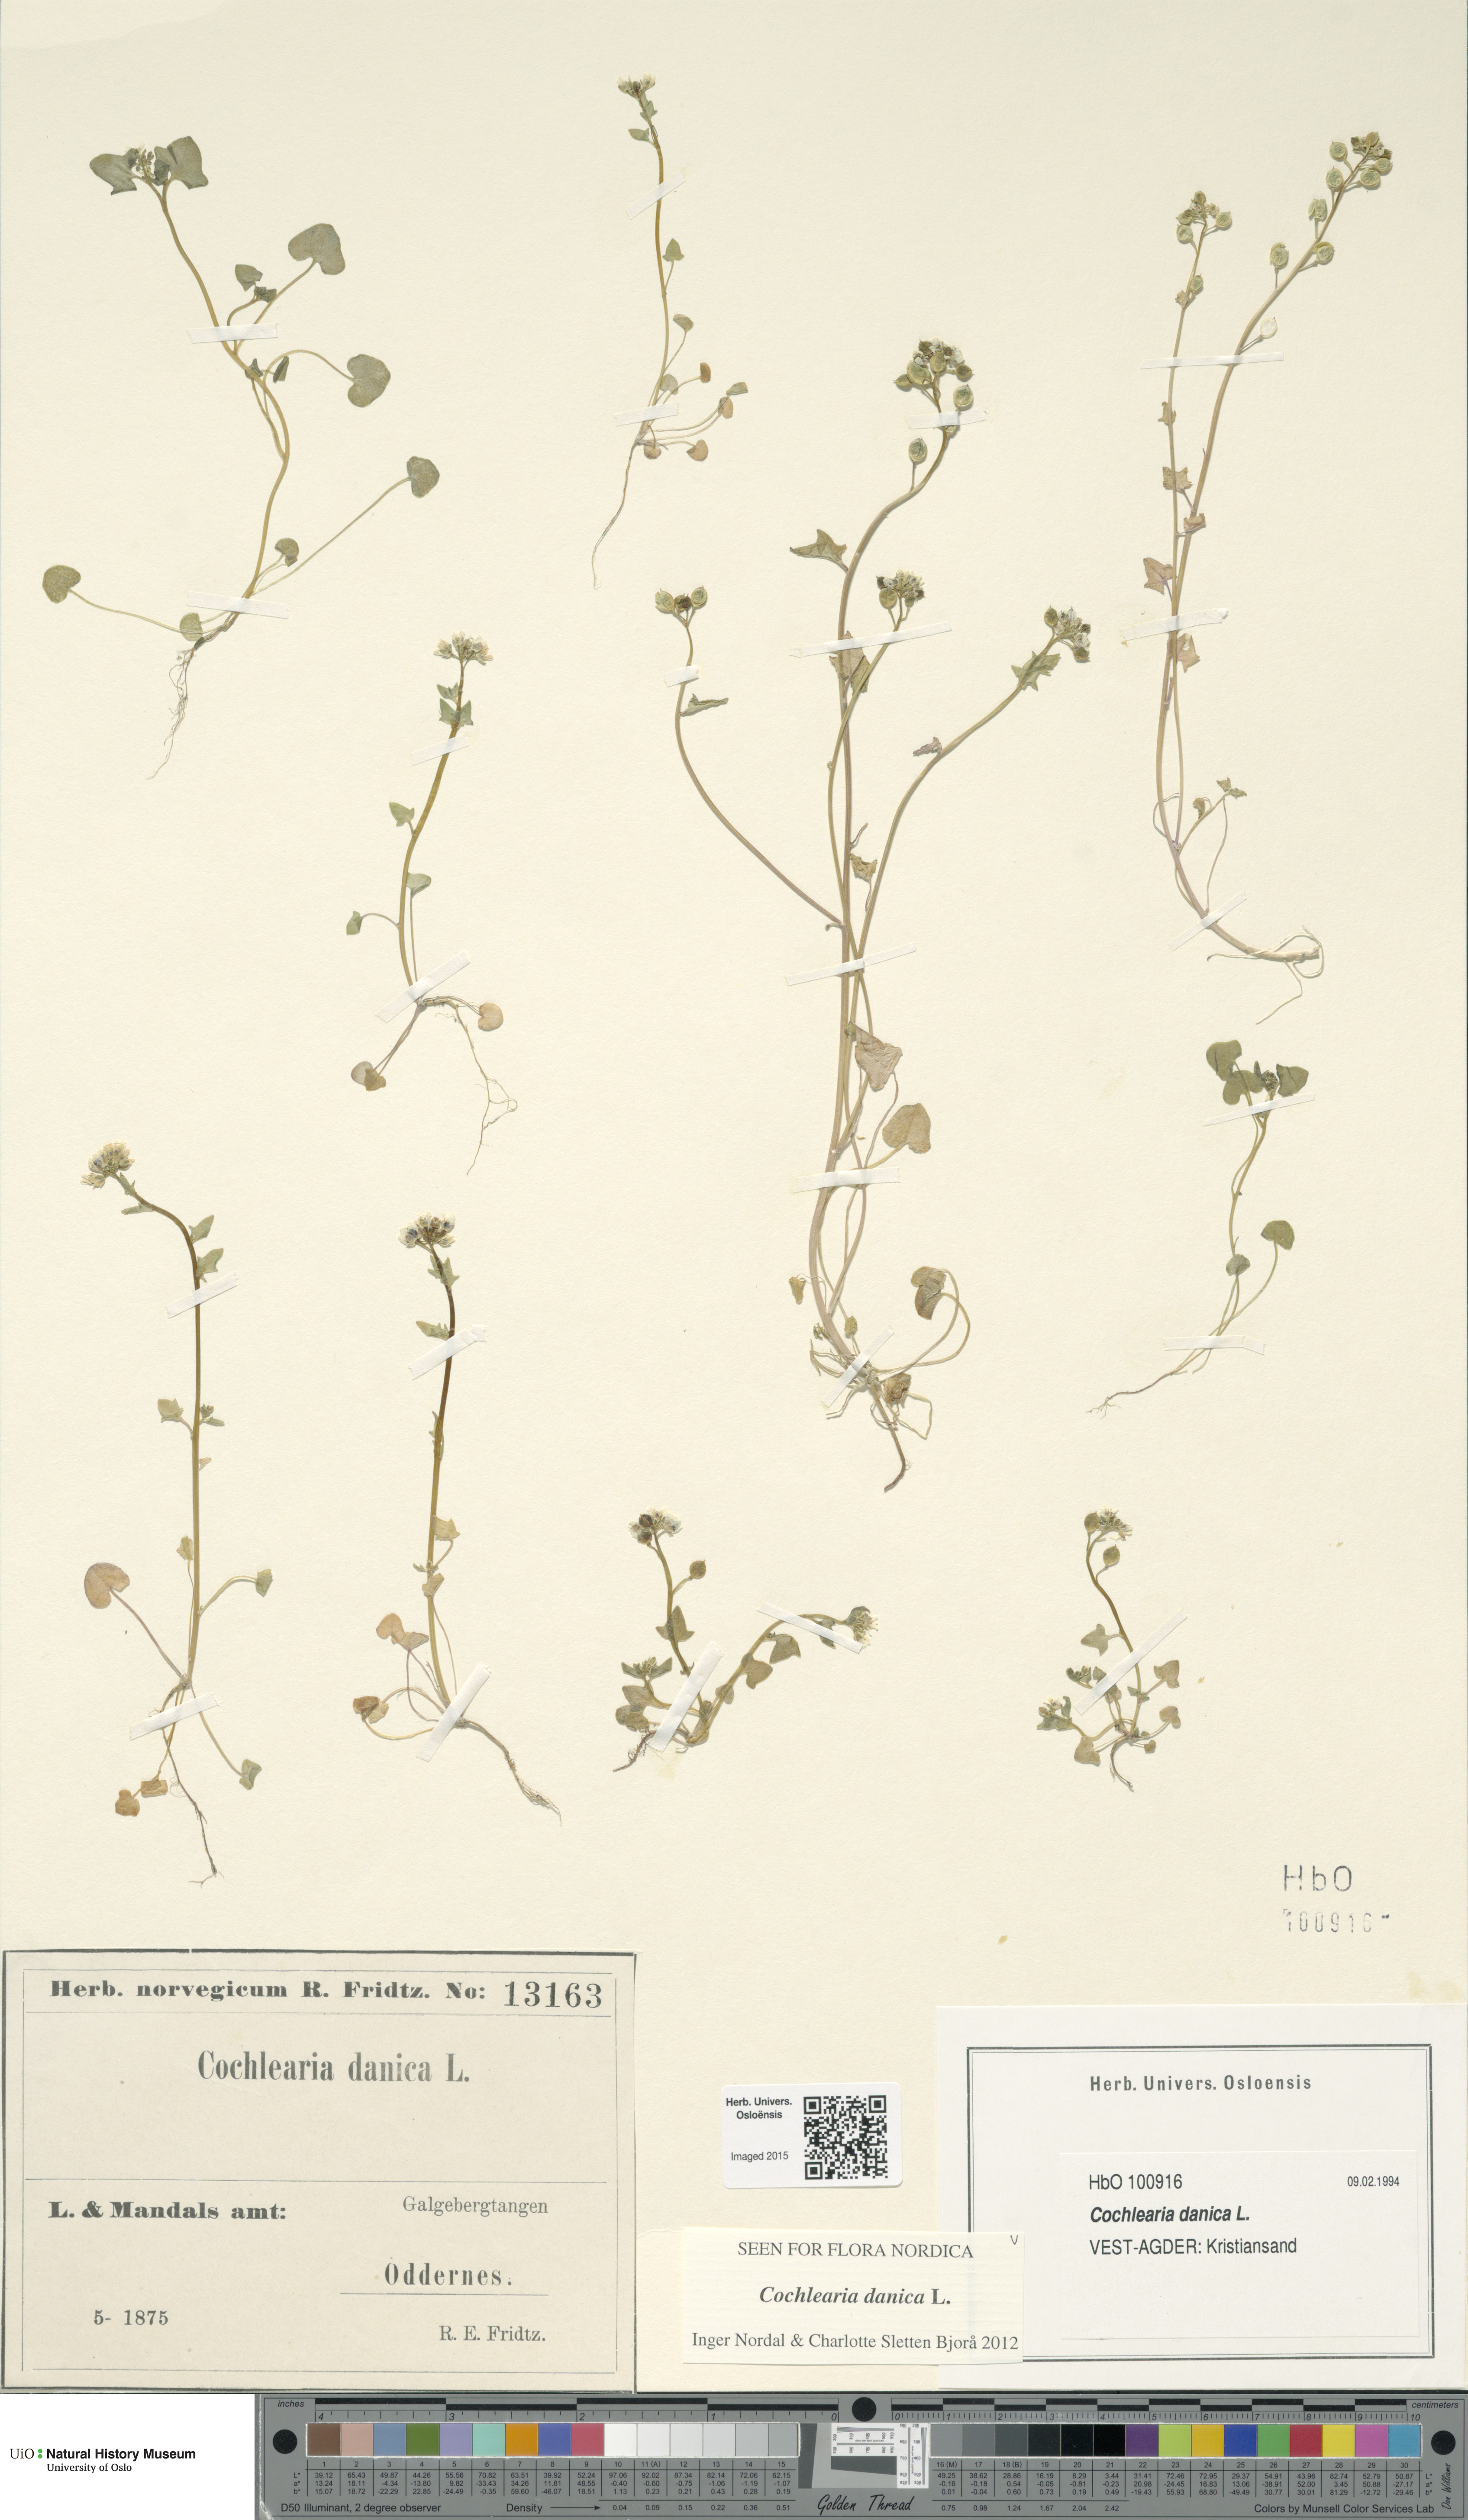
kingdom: Plantae
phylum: Tracheophyta
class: Magnoliopsida
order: Brassicales
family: Brassicaceae
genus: Cochlearia
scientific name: Cochlearia danica
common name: Early scurvygrass
